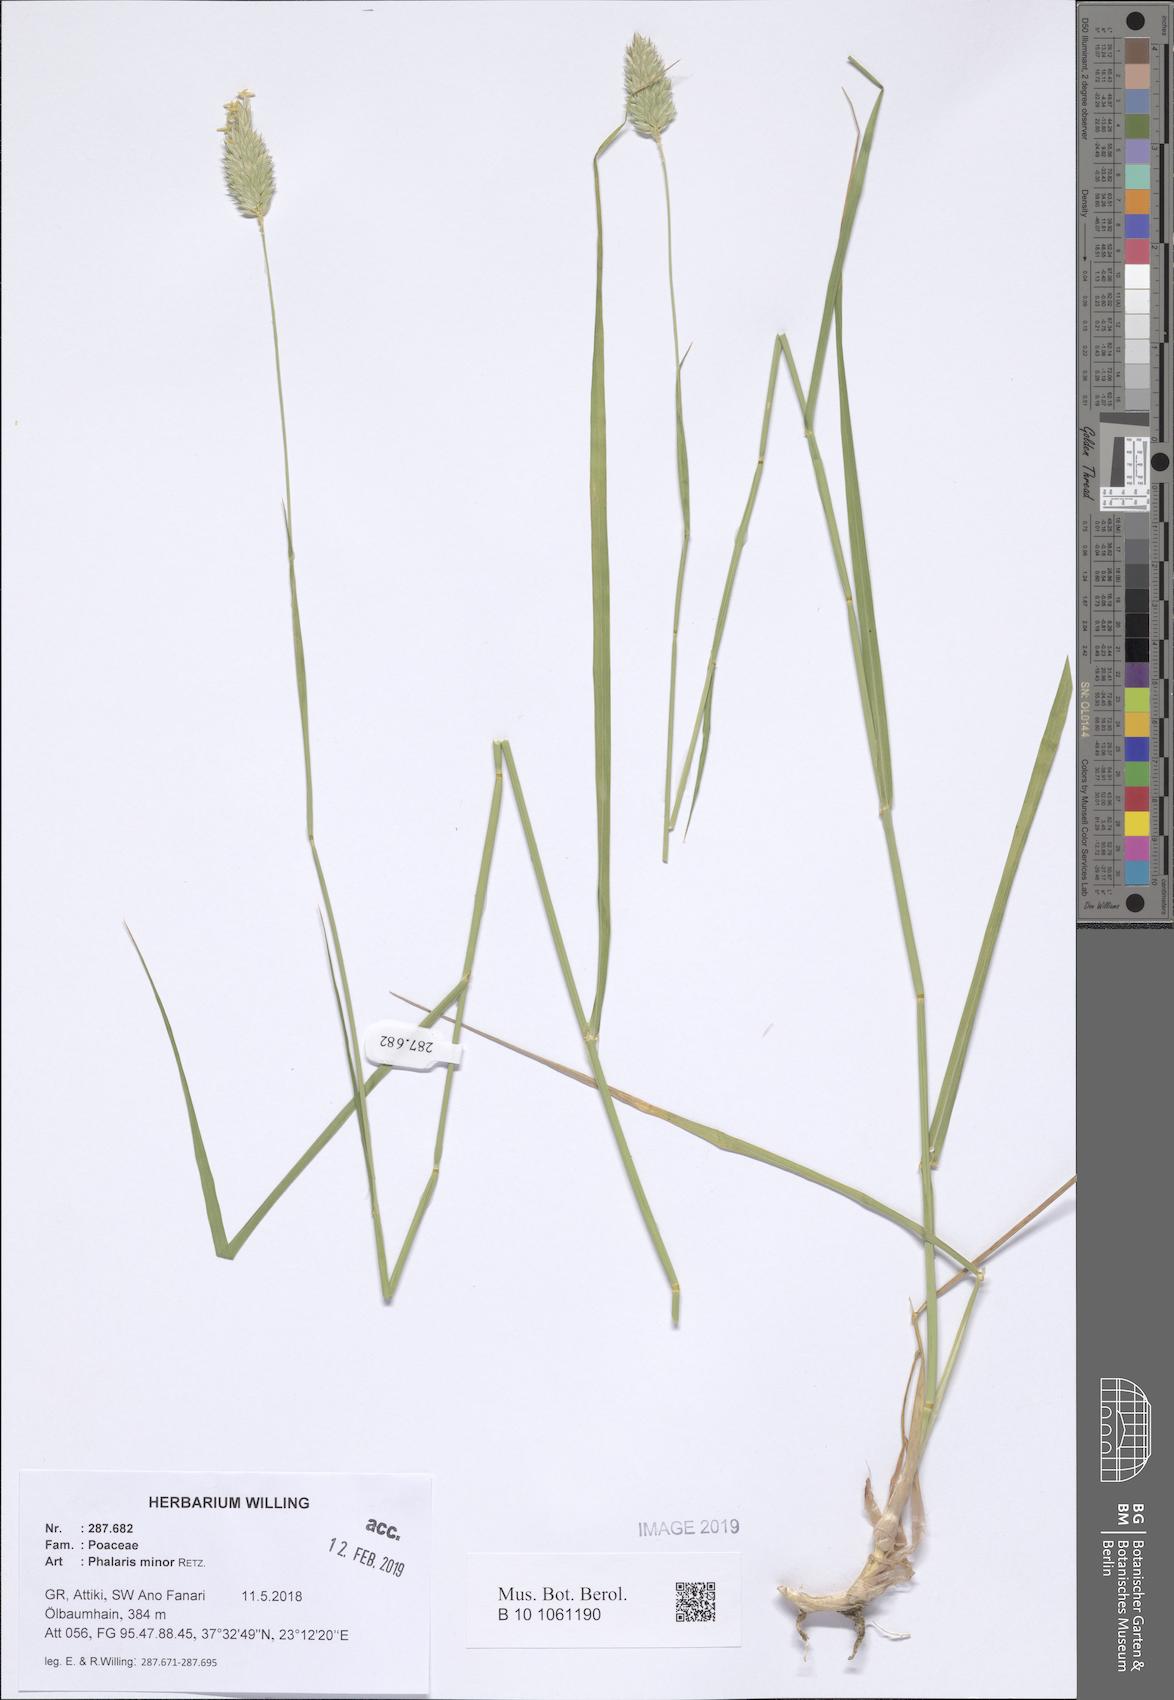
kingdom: Plantae
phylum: Tracheophyta
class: Liliopsida
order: Poales
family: Poaceae
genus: Phalaris
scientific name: Phalaris minor
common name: Littleseed canarygrass
